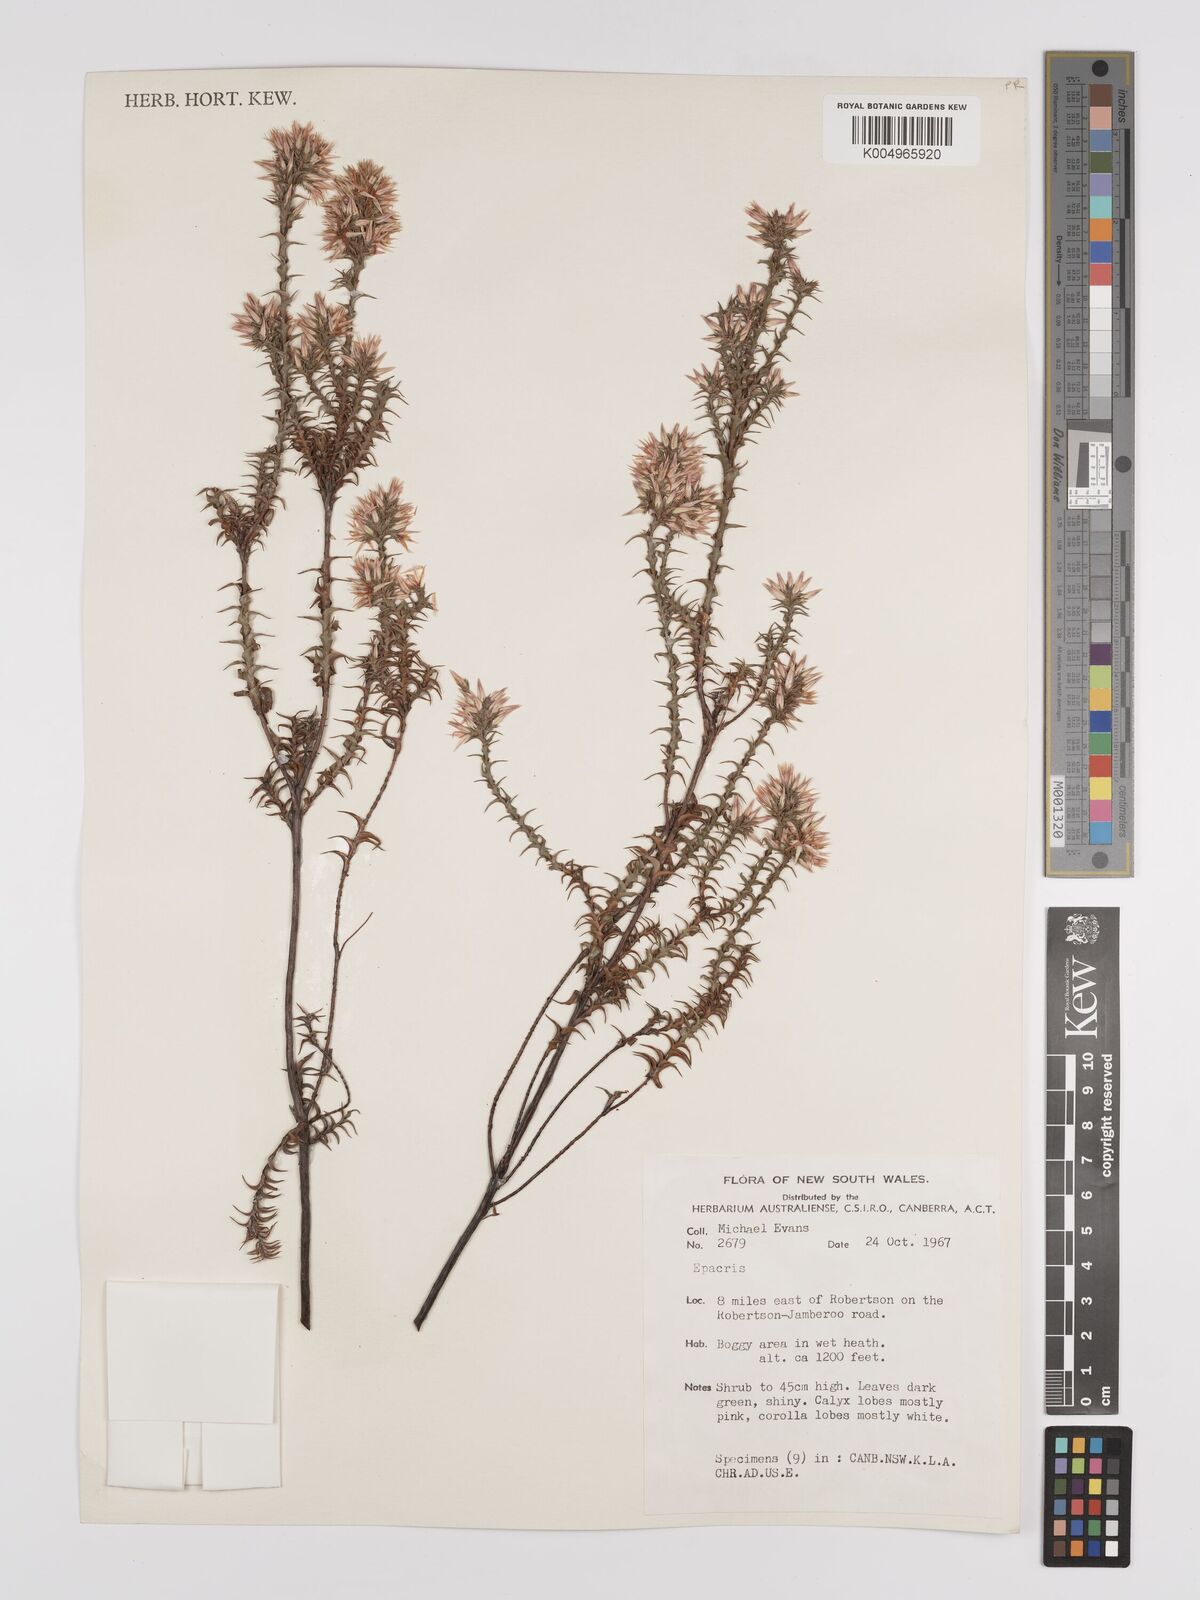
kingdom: Plantae
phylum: Tracheophyta
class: Magnoliopsida
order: Ericales
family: Ericaceae
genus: Epacris
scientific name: Epacris
